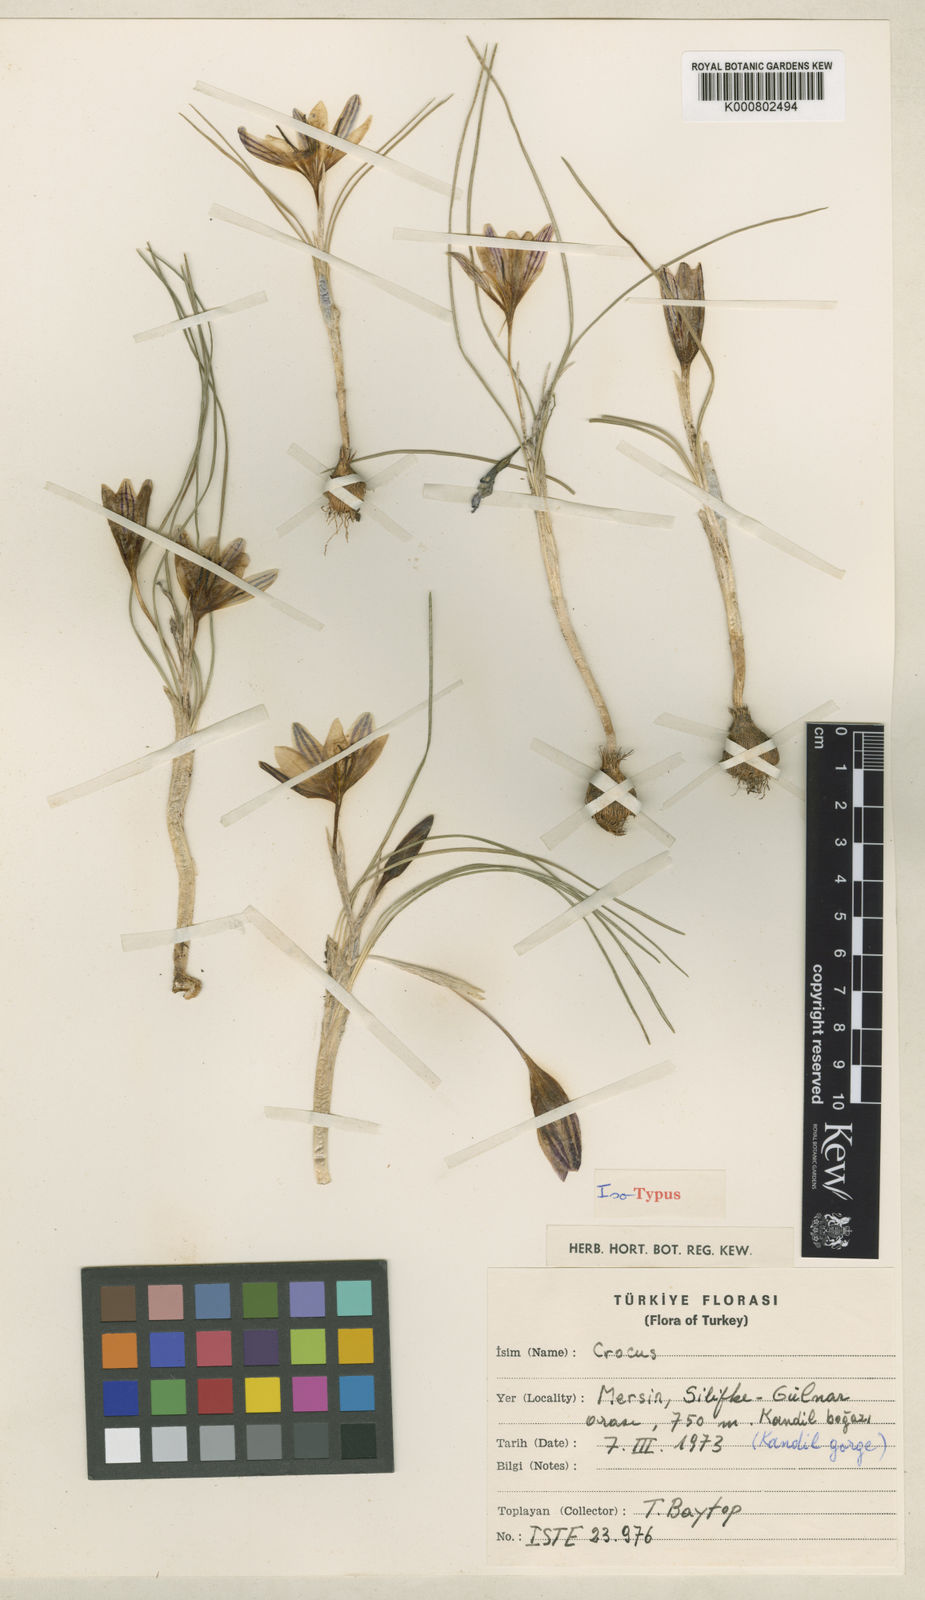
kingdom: Plantae
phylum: Tracheophyta
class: Liliopsida
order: Asparagales
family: Iridaceae
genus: Crocus
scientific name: Crocus hittiticus
